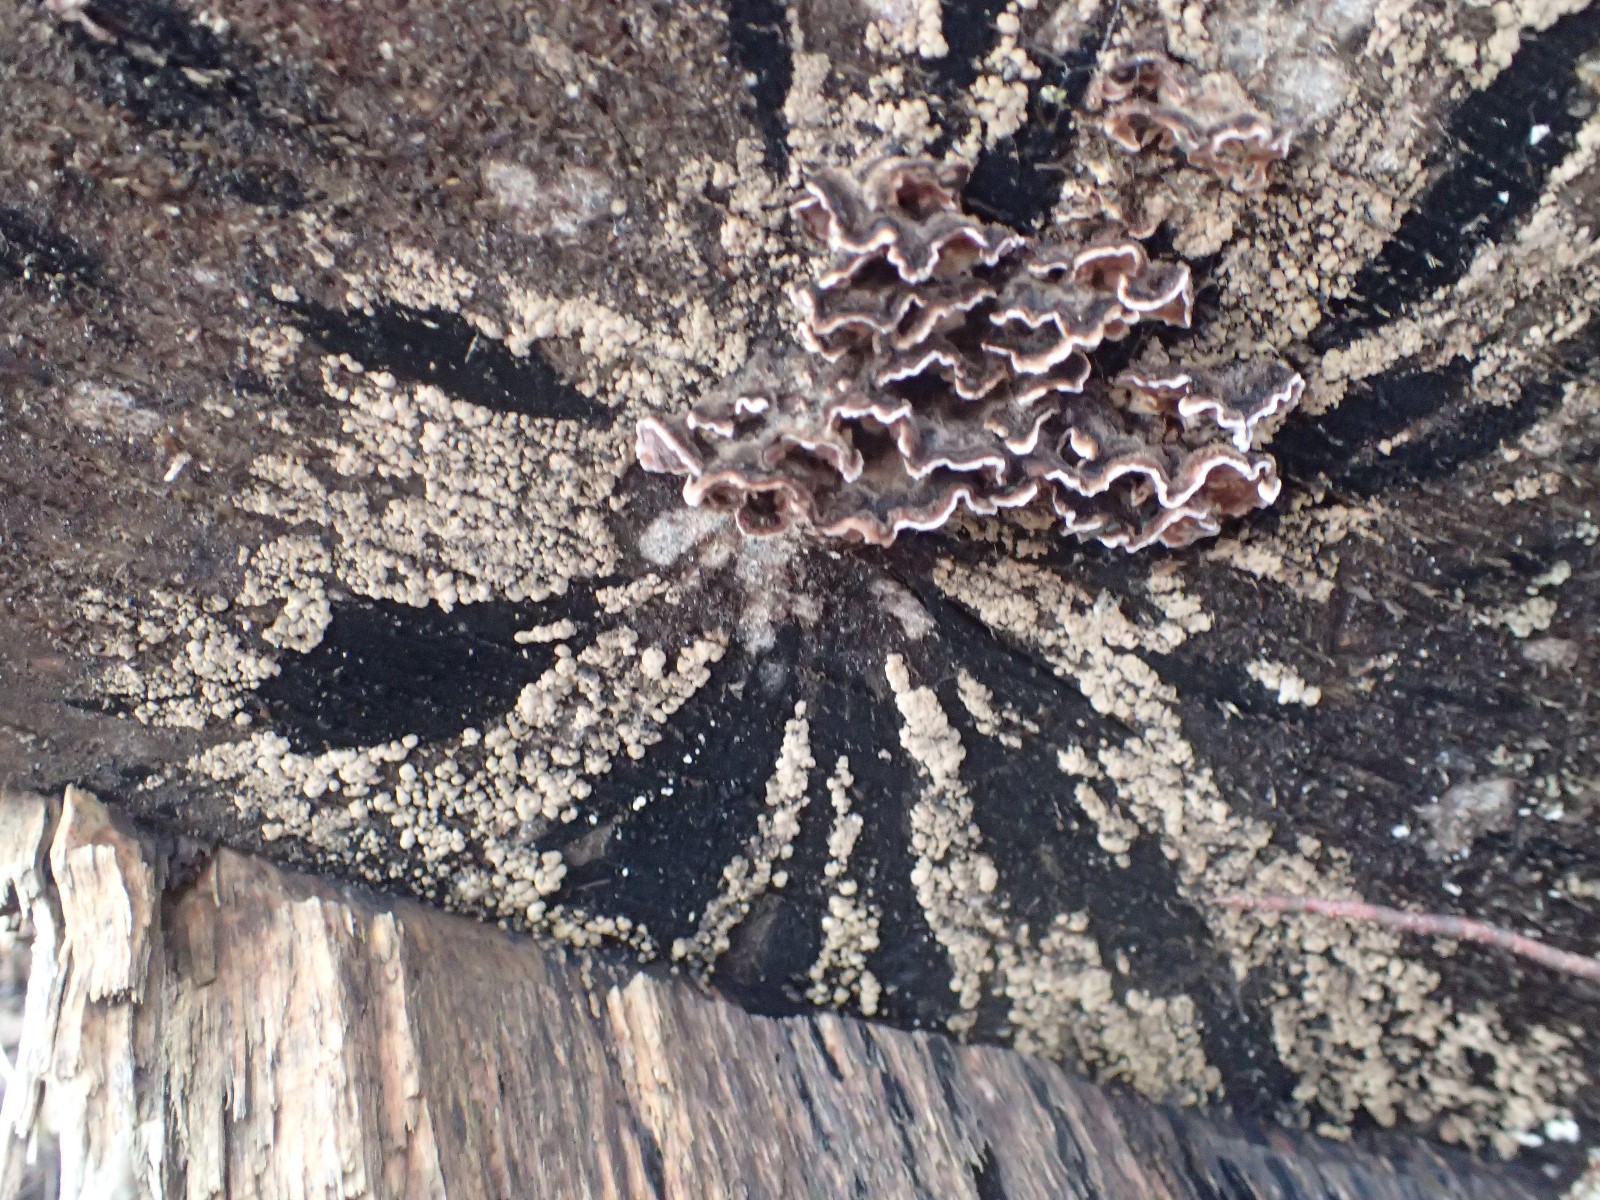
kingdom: Fungi
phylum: Ascomycota
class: Leotiomycetes
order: Helotiales
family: Helotiaceae
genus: Bispora
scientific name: Bispora pallescens
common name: måtte-snitskive
